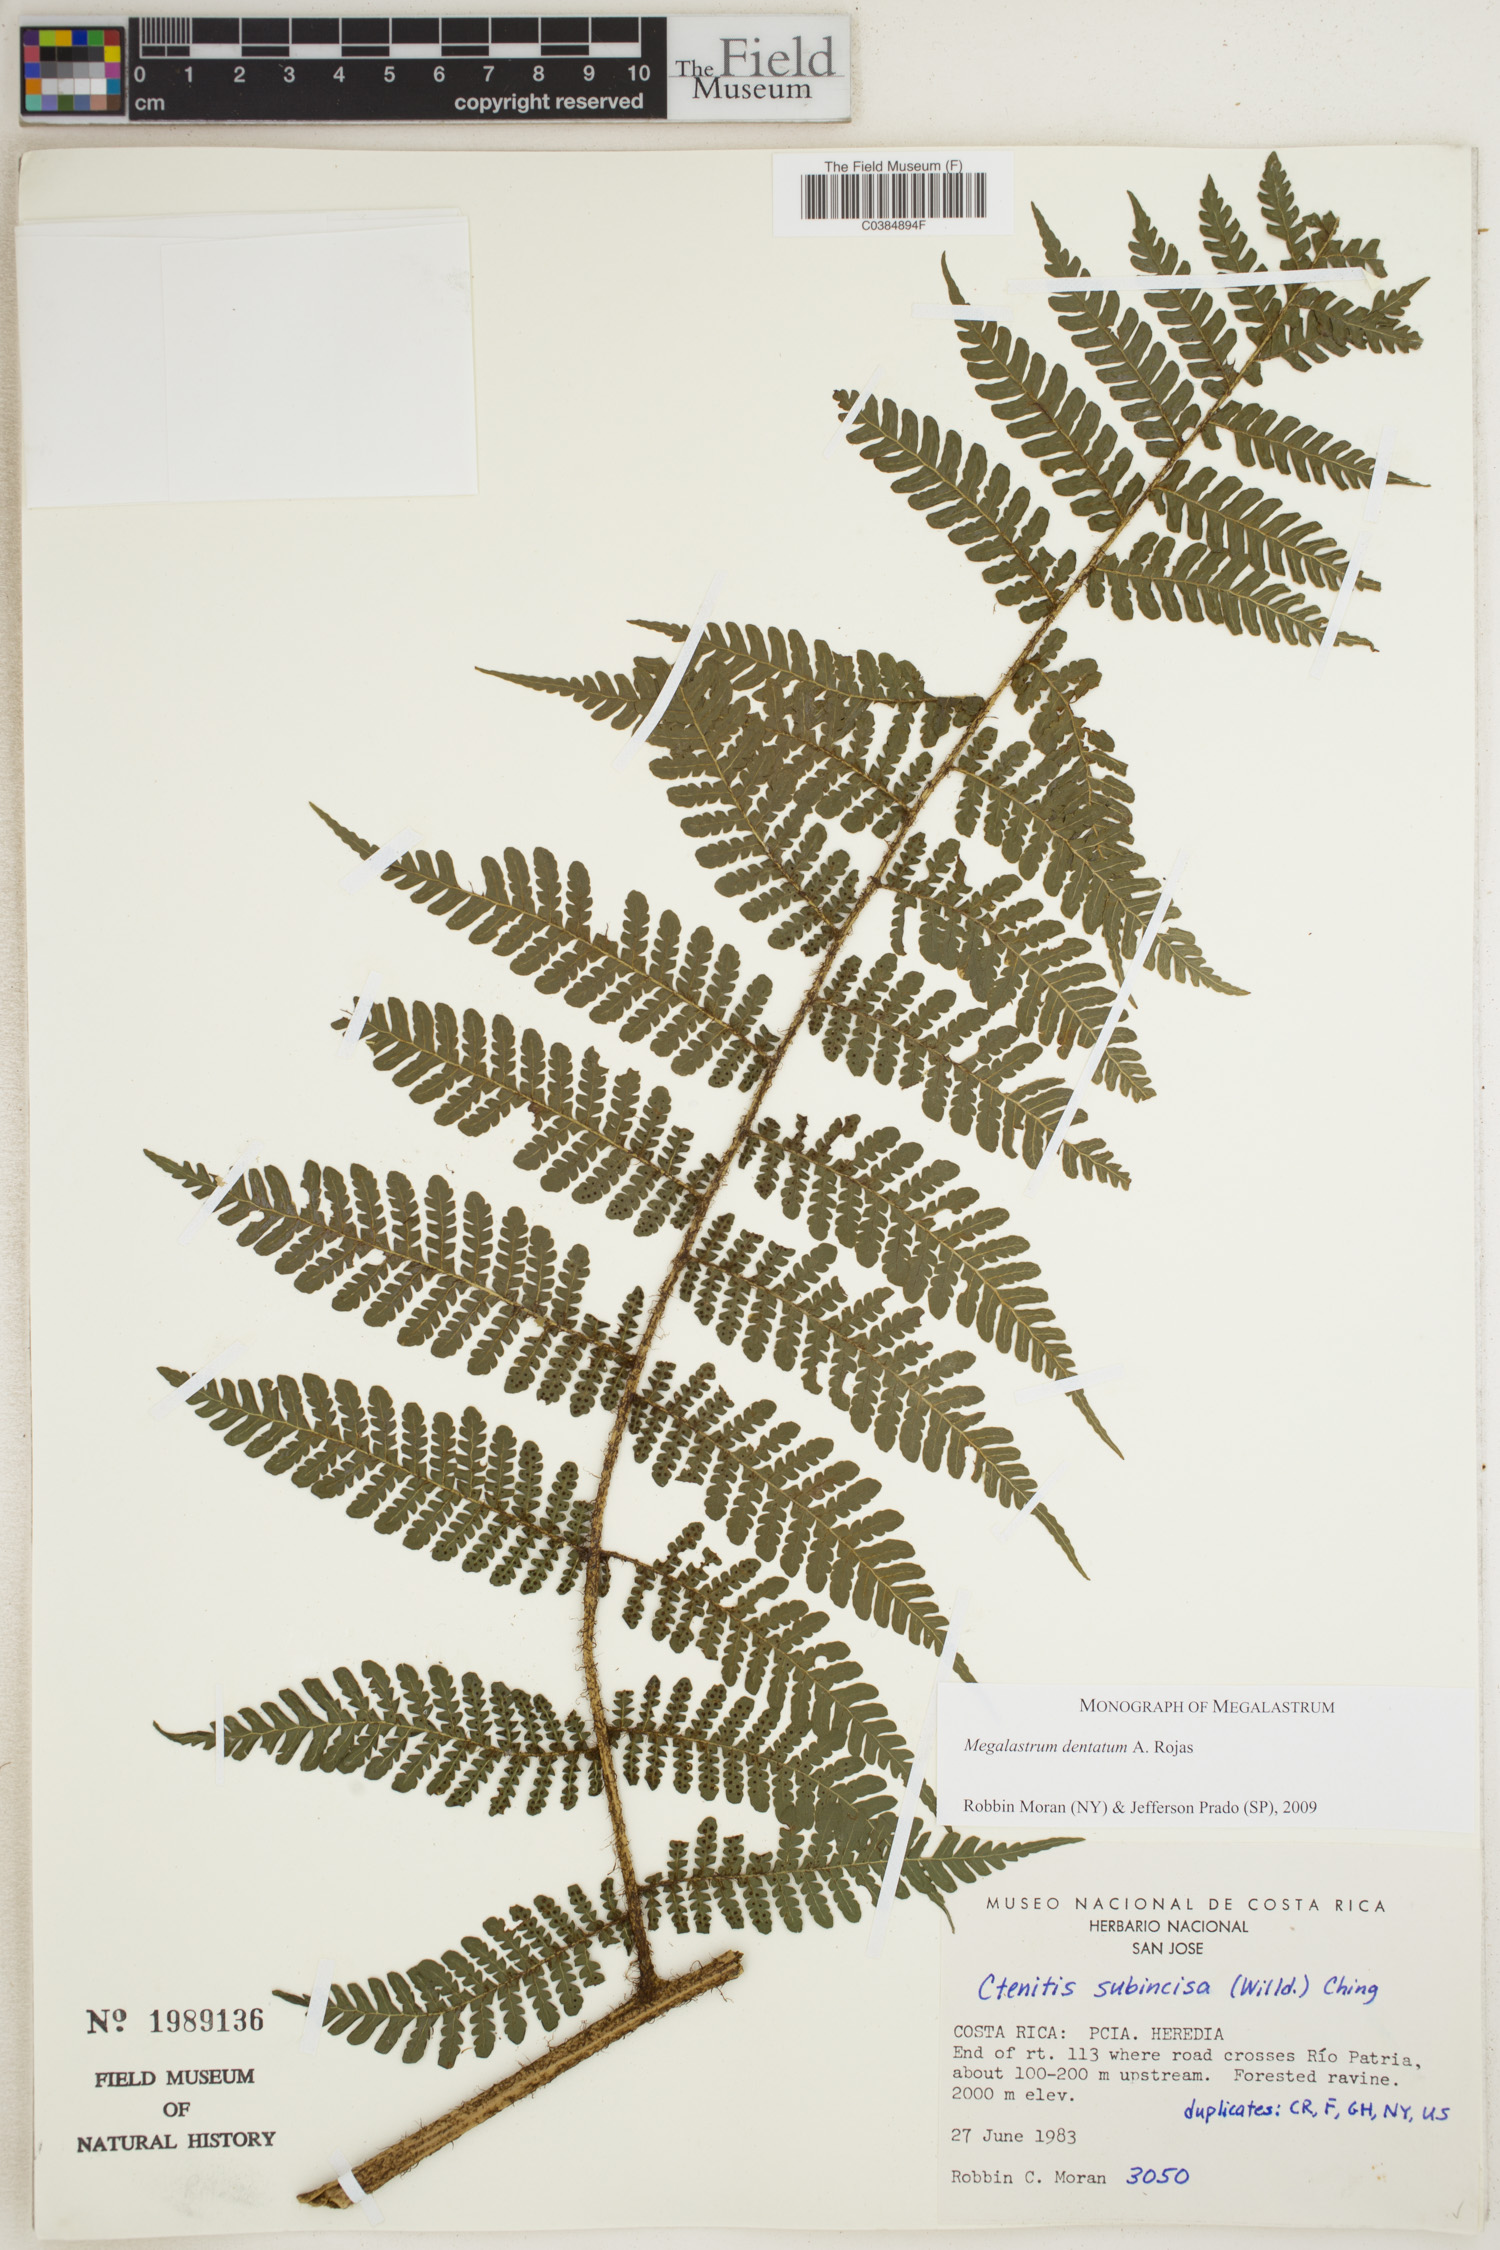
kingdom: Plantae
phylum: Tracheophyta
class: Polypodiopsida
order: Polypodiales
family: Dryopteridaceae
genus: Megalastrum
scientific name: Megalastrum dentatum
